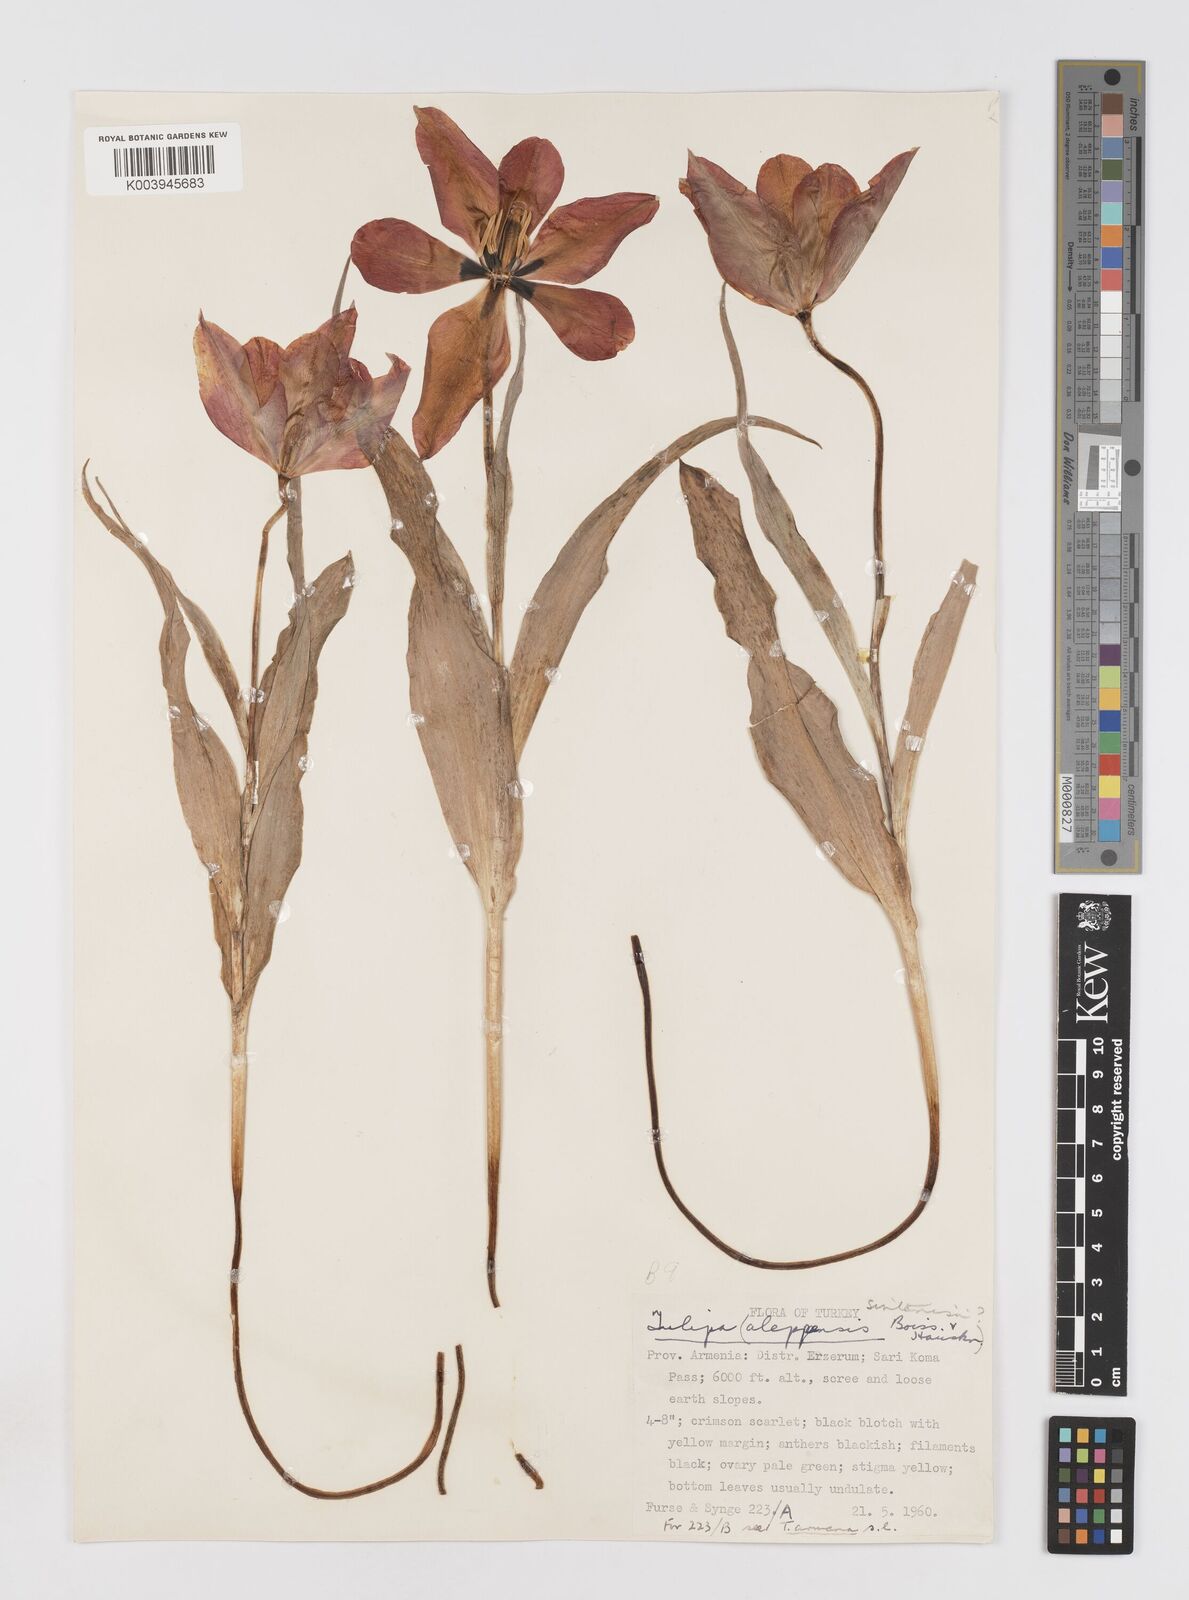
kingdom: Plantae
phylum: Tracheophyta
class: Liliopsida
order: Liliales
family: Liliaceae
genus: Tulipa
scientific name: Tulipa aleppensis
